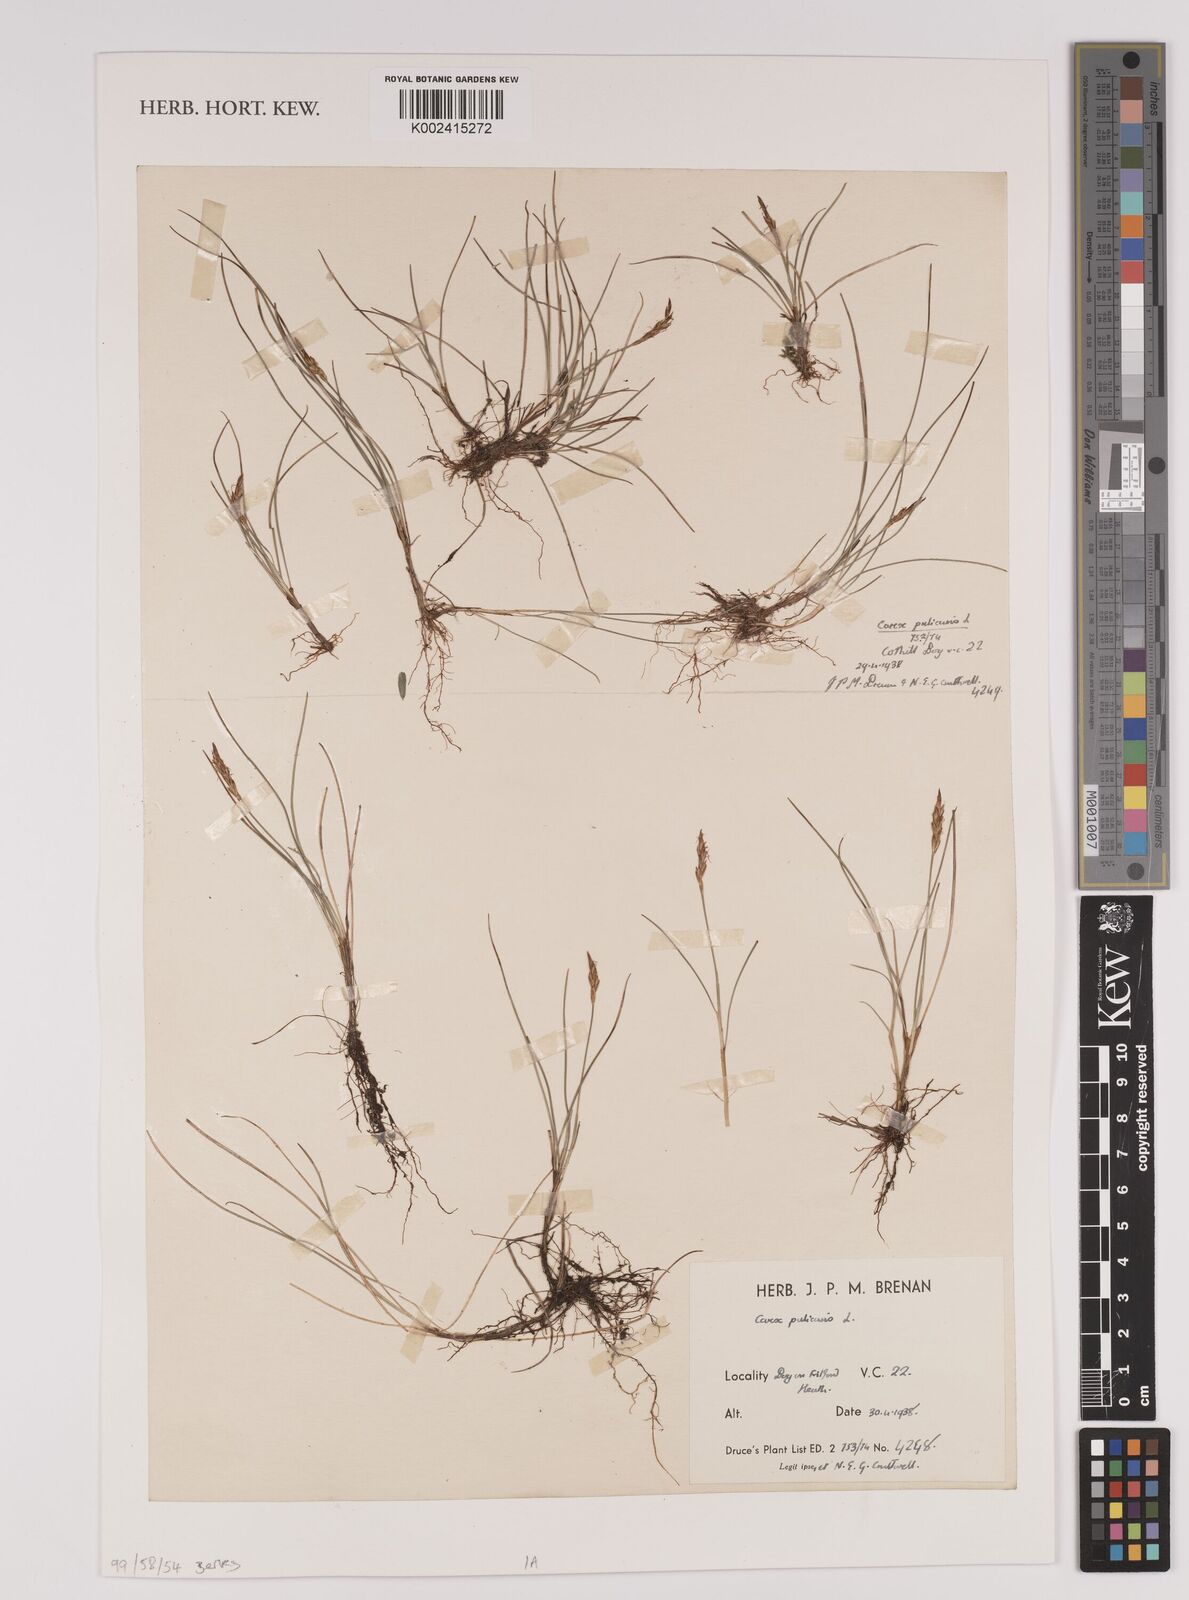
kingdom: Plantae
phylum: Tracheophyta
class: Liliopsida
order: Poales
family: Cyperaceae
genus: Carex
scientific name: Carex pulicaris
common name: Flea sedge
